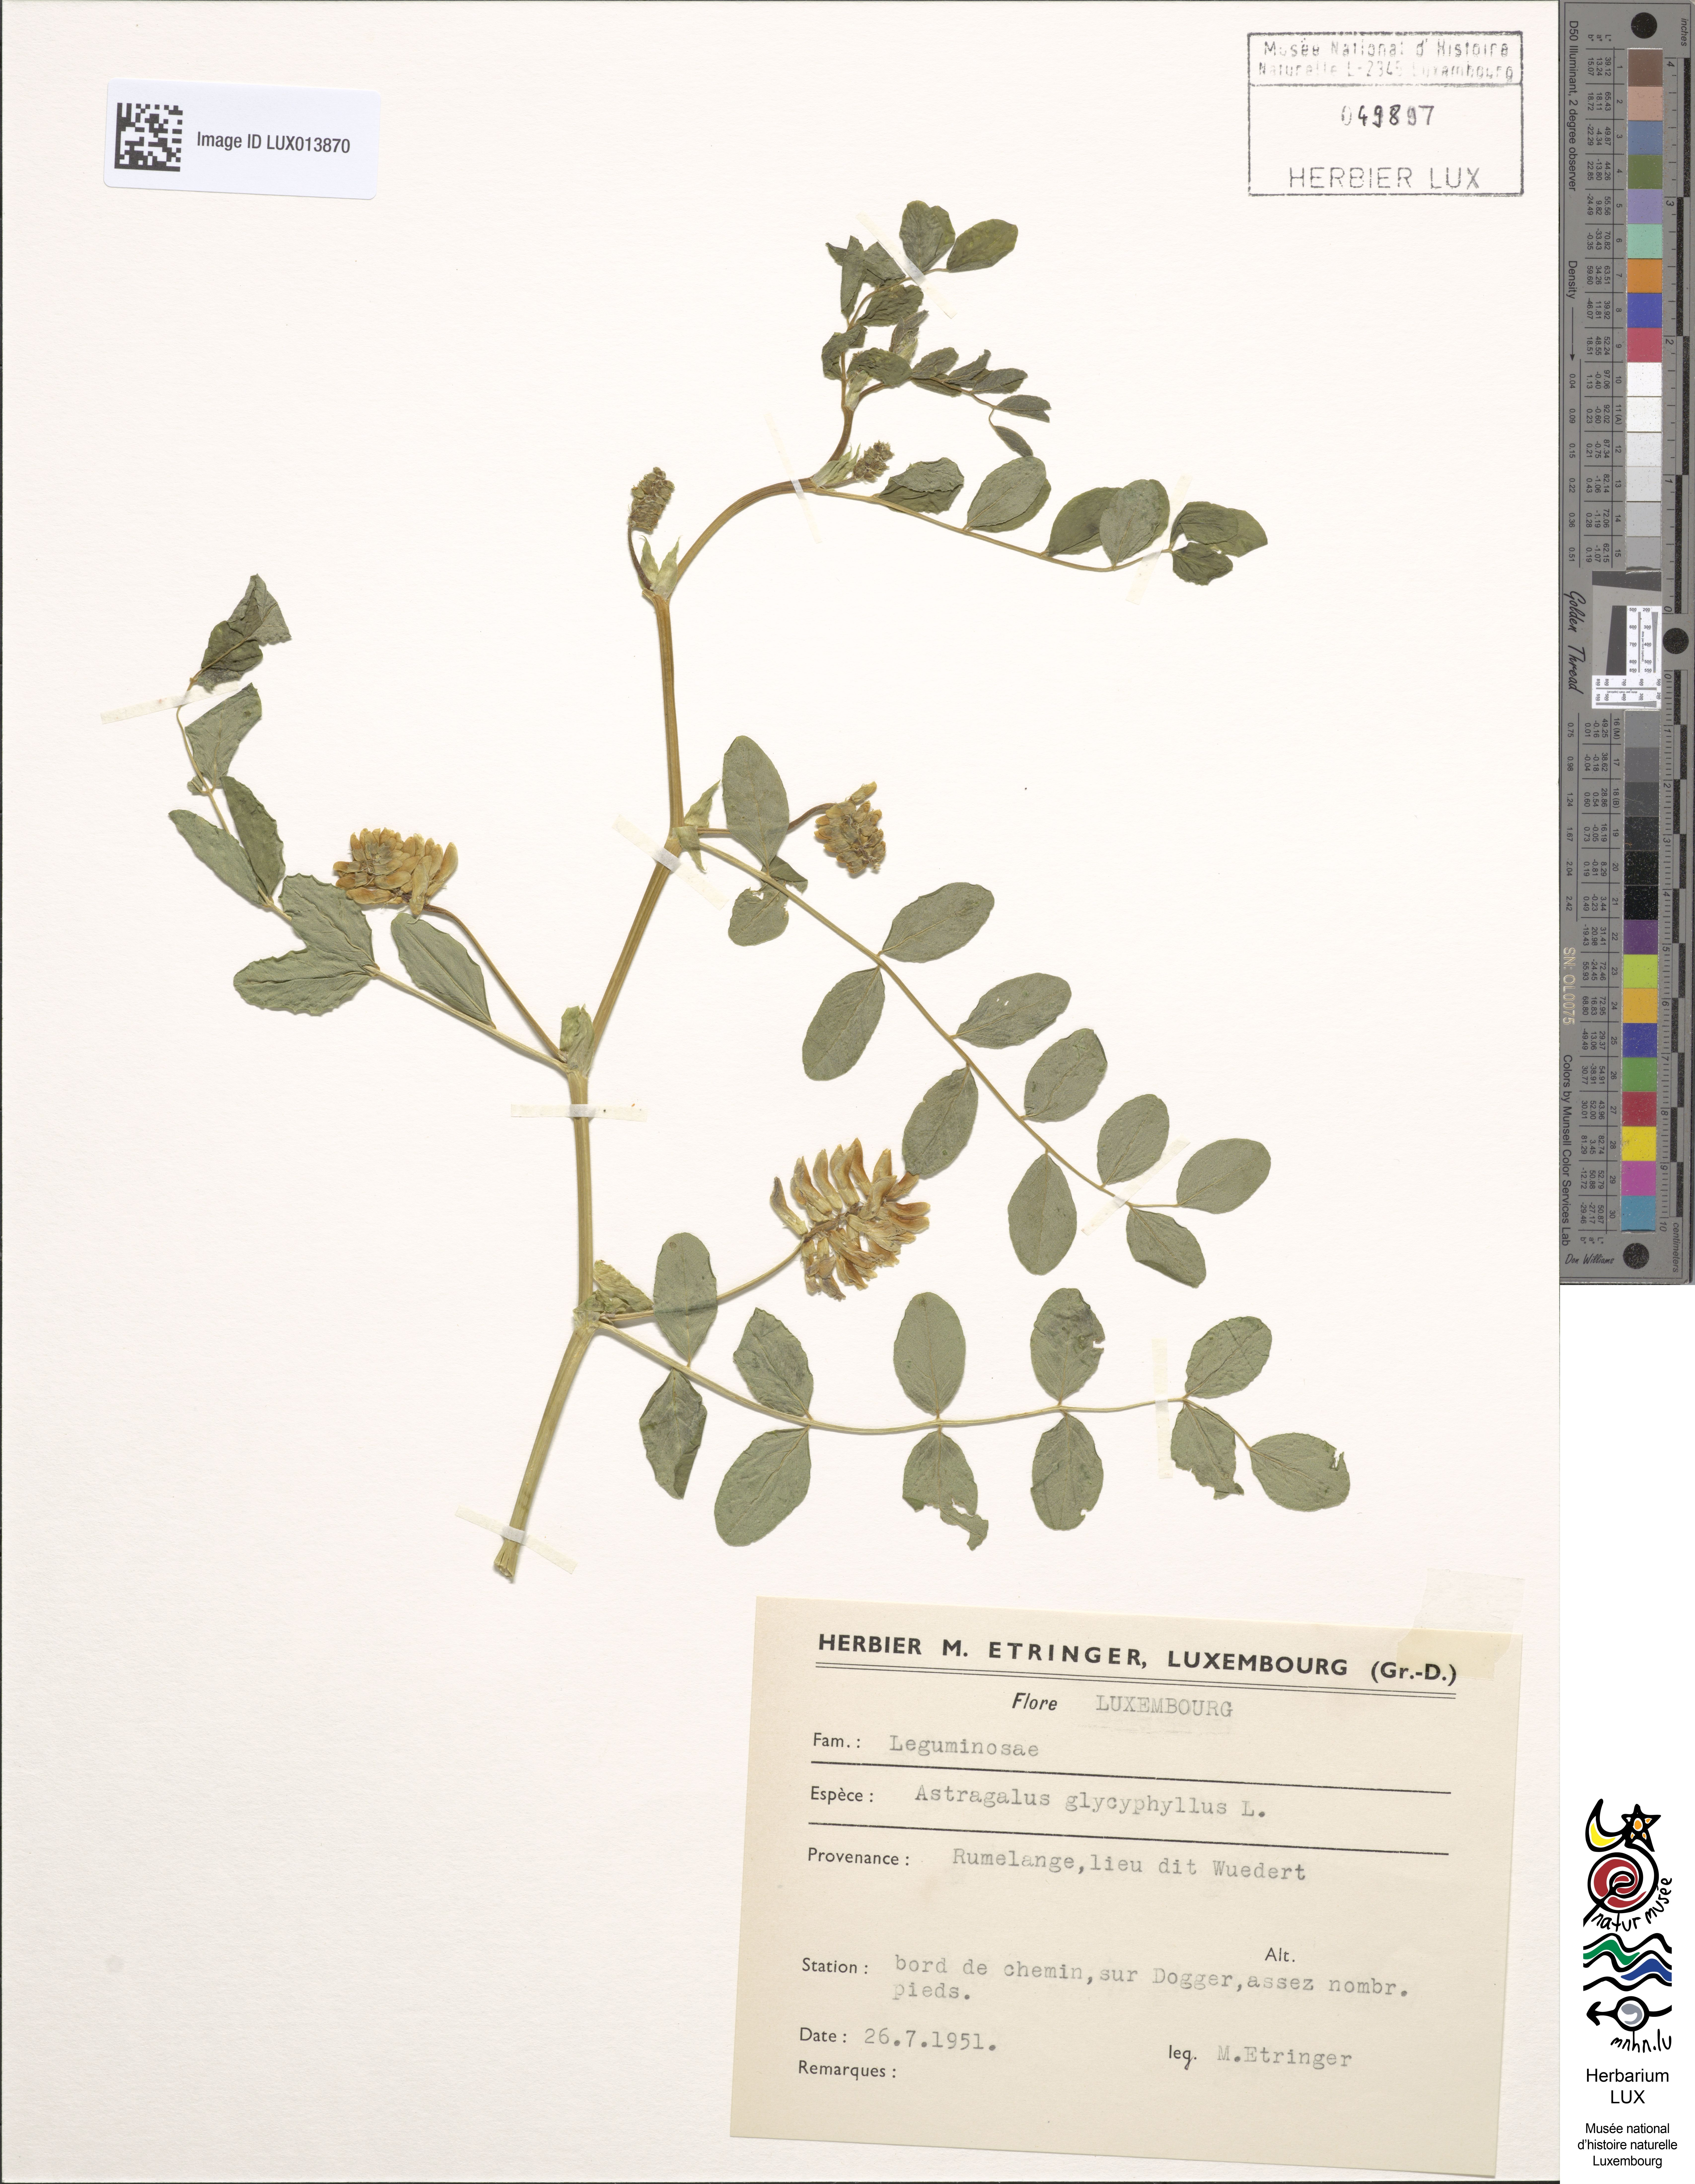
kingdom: Plantae
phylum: Tracheophyta
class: Magnoliopsida
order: Fabales
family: Fabaceae
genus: Astragalus
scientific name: Astragalus glycyphyllos
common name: Wild liquorice
